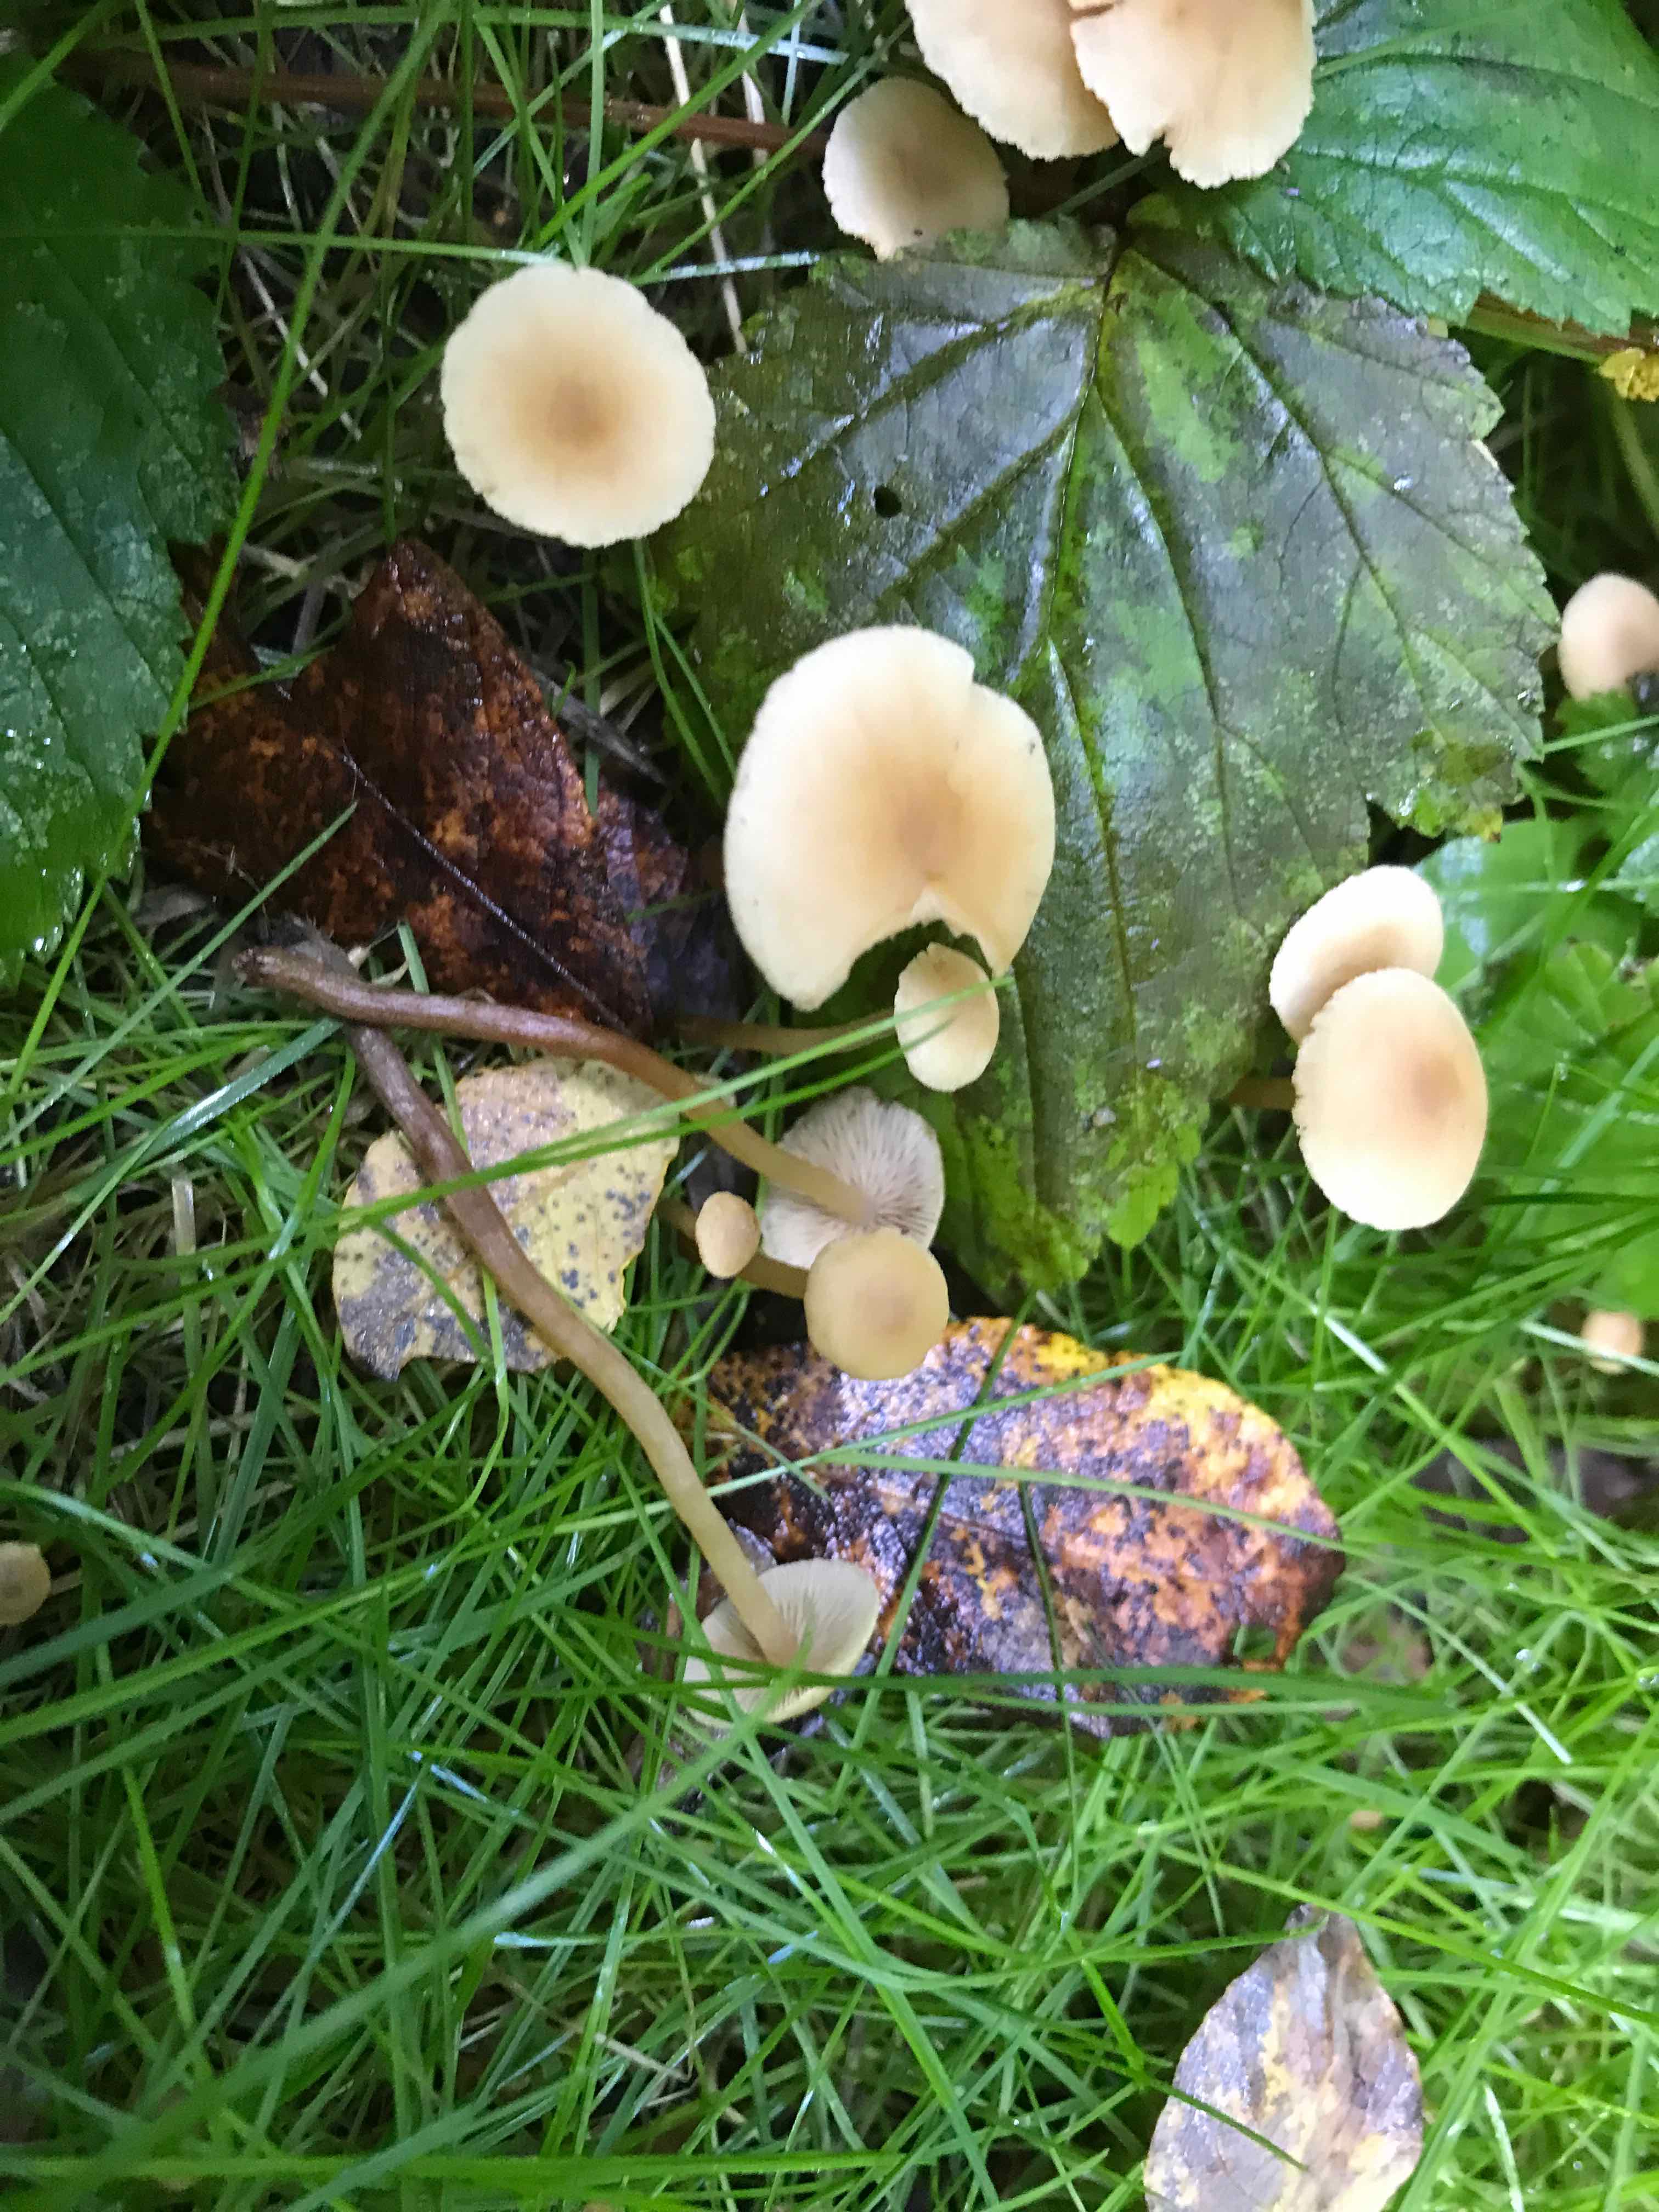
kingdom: Fungi
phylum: Basidiomycota
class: Agaricomycetes
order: Agaricales
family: Hymenogastraceae
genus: Naucoria
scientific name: Naucoria escharioides
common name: lys elle-knaphat
